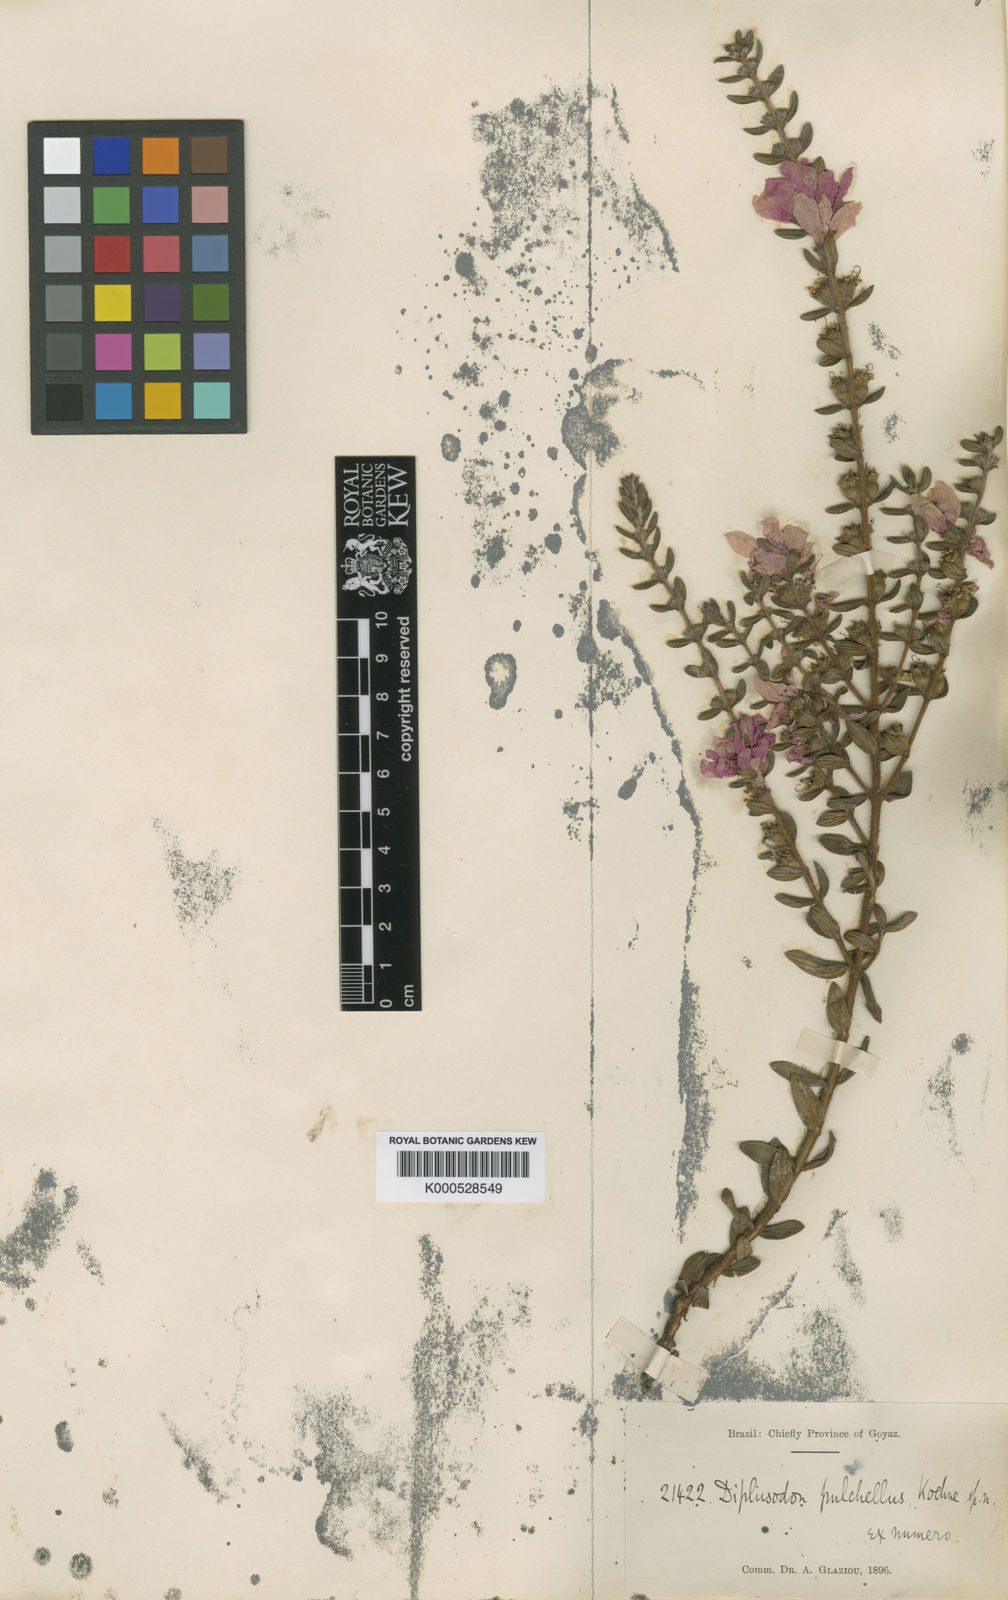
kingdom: Plantae
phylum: Tracheophyta
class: Magnoliopsida
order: Myrtales
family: Lythraceae
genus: Diplusodon
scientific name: Diplusodon villosus
